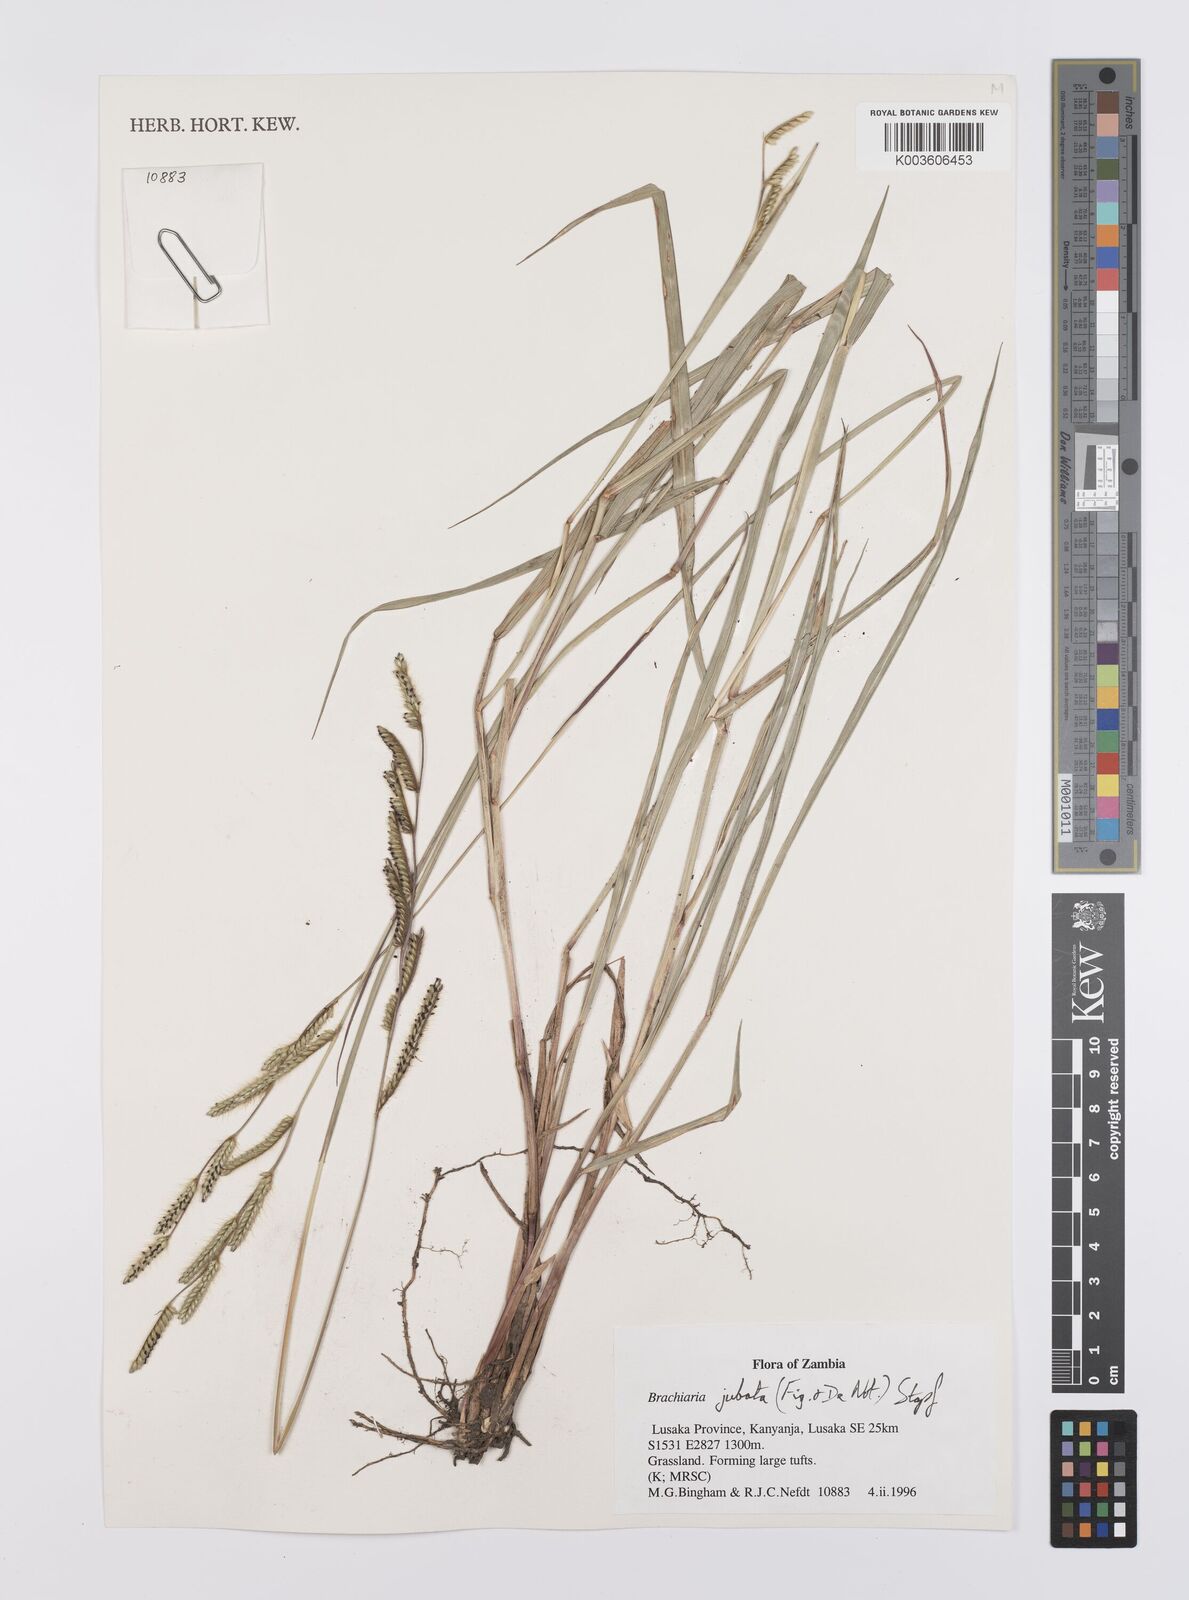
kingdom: Plantae
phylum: Tracheophyta
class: Liliopsida
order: Poales
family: Poaceae
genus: Urochloa
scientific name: Urochloa jubata
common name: Buffalograss
